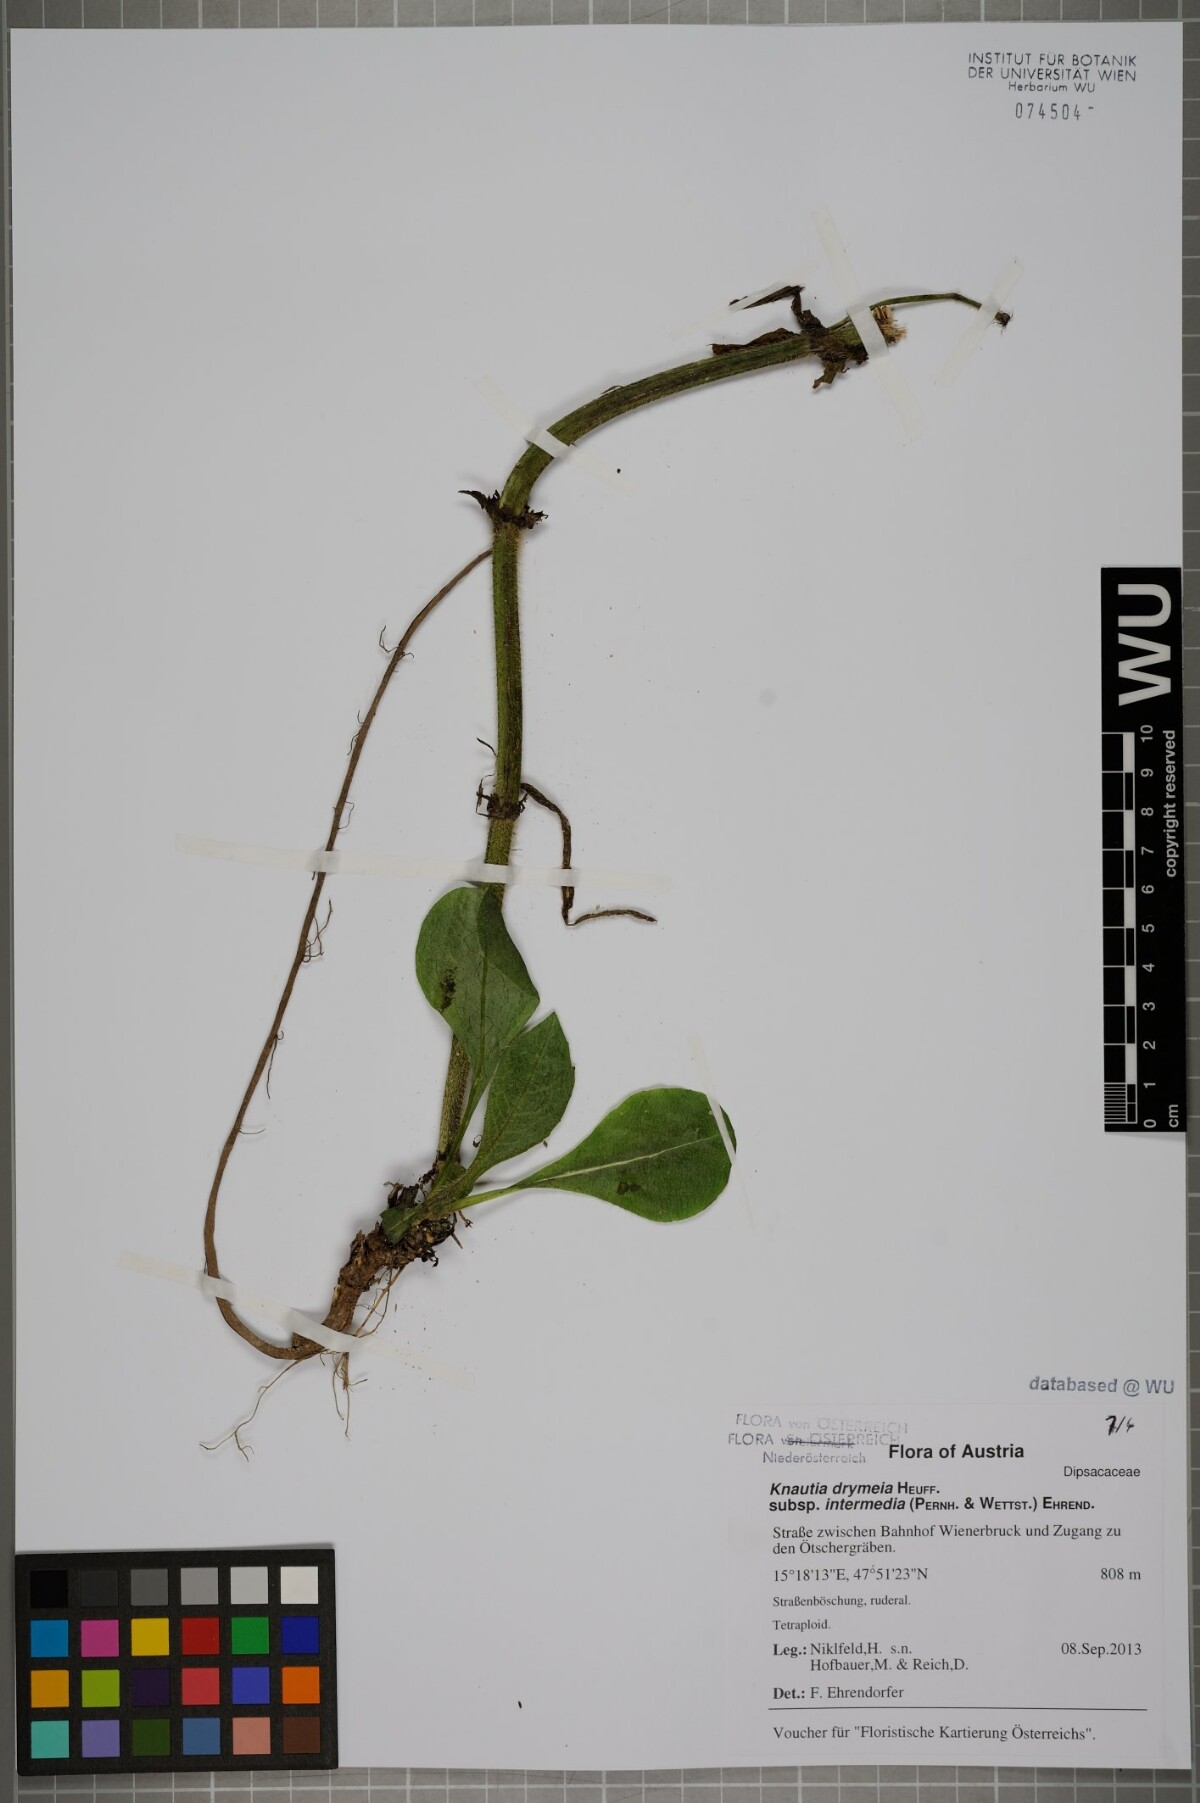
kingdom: Plantae
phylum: Tracheophyta
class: Magnoliopsida
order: Dipsacales
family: Caprifoliaceae
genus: Knautia
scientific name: Knautia drymeia
